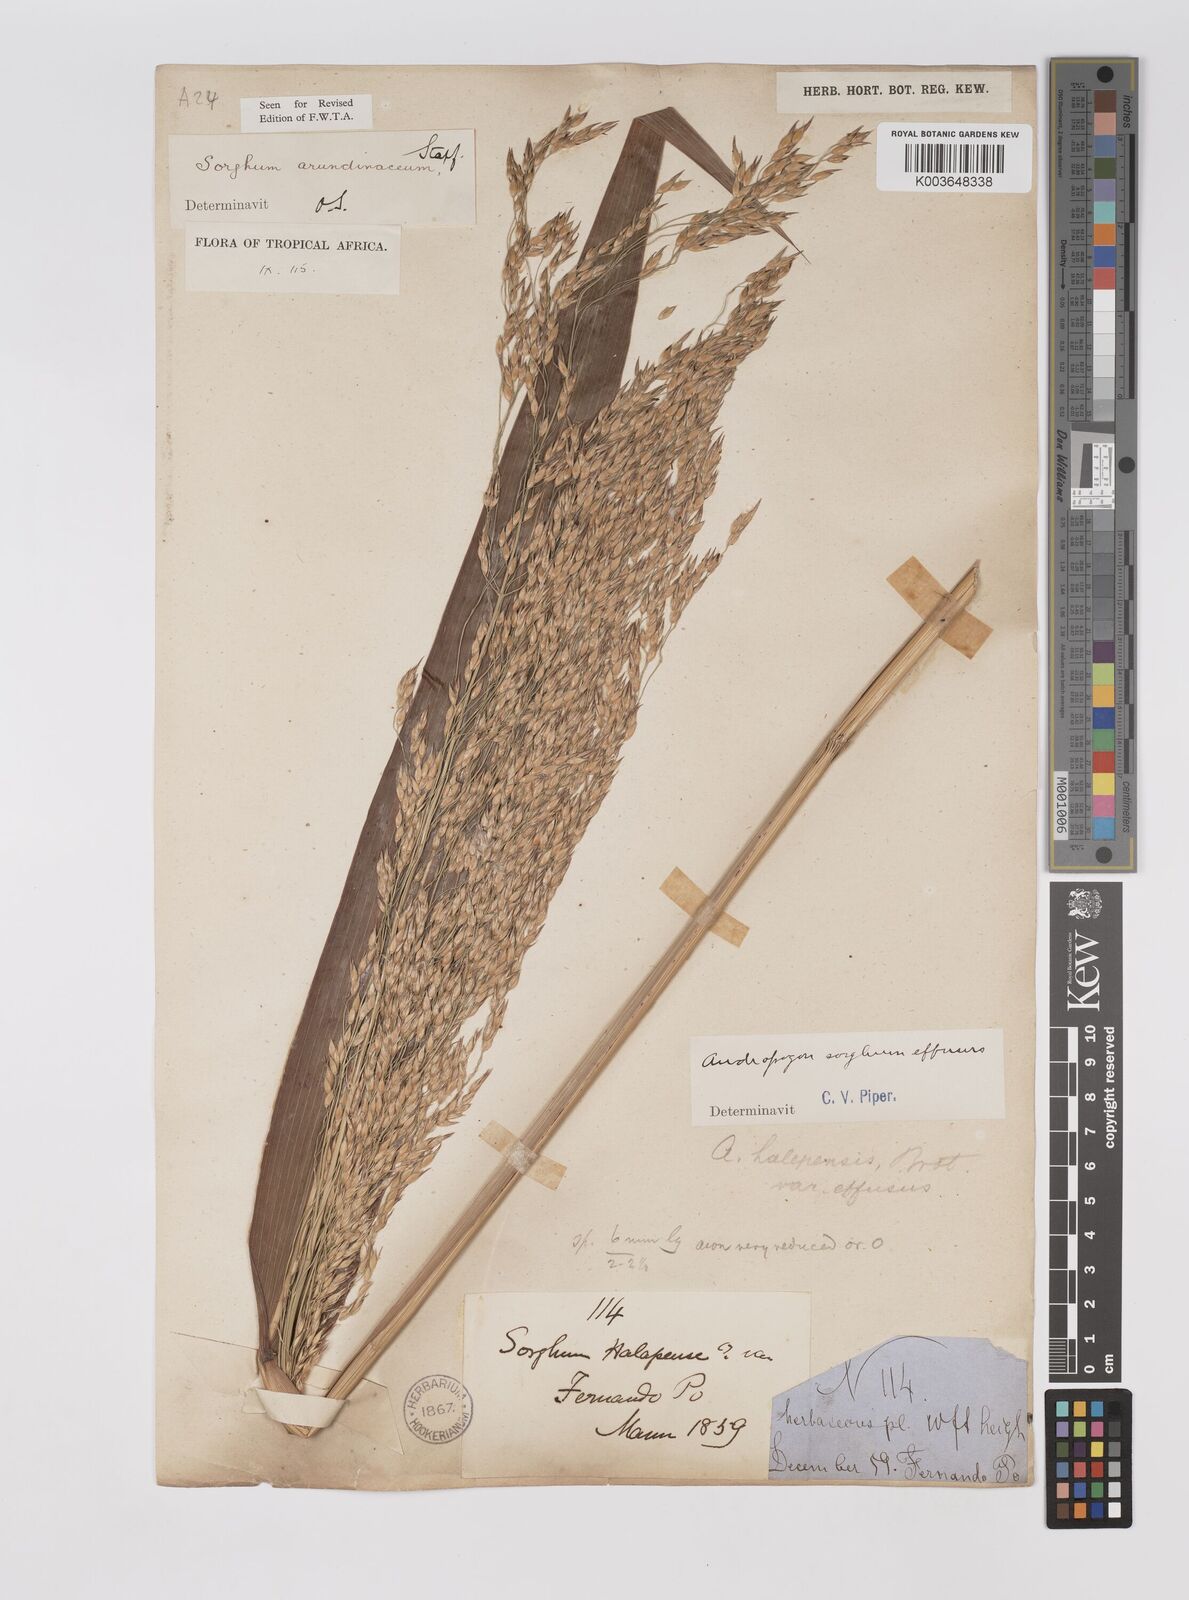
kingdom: Plantae
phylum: Tracheophyta
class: Liliopsida
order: Poales
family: Poaceae
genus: Sorghum
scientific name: Sorghum arundinaceum
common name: Sorghum
